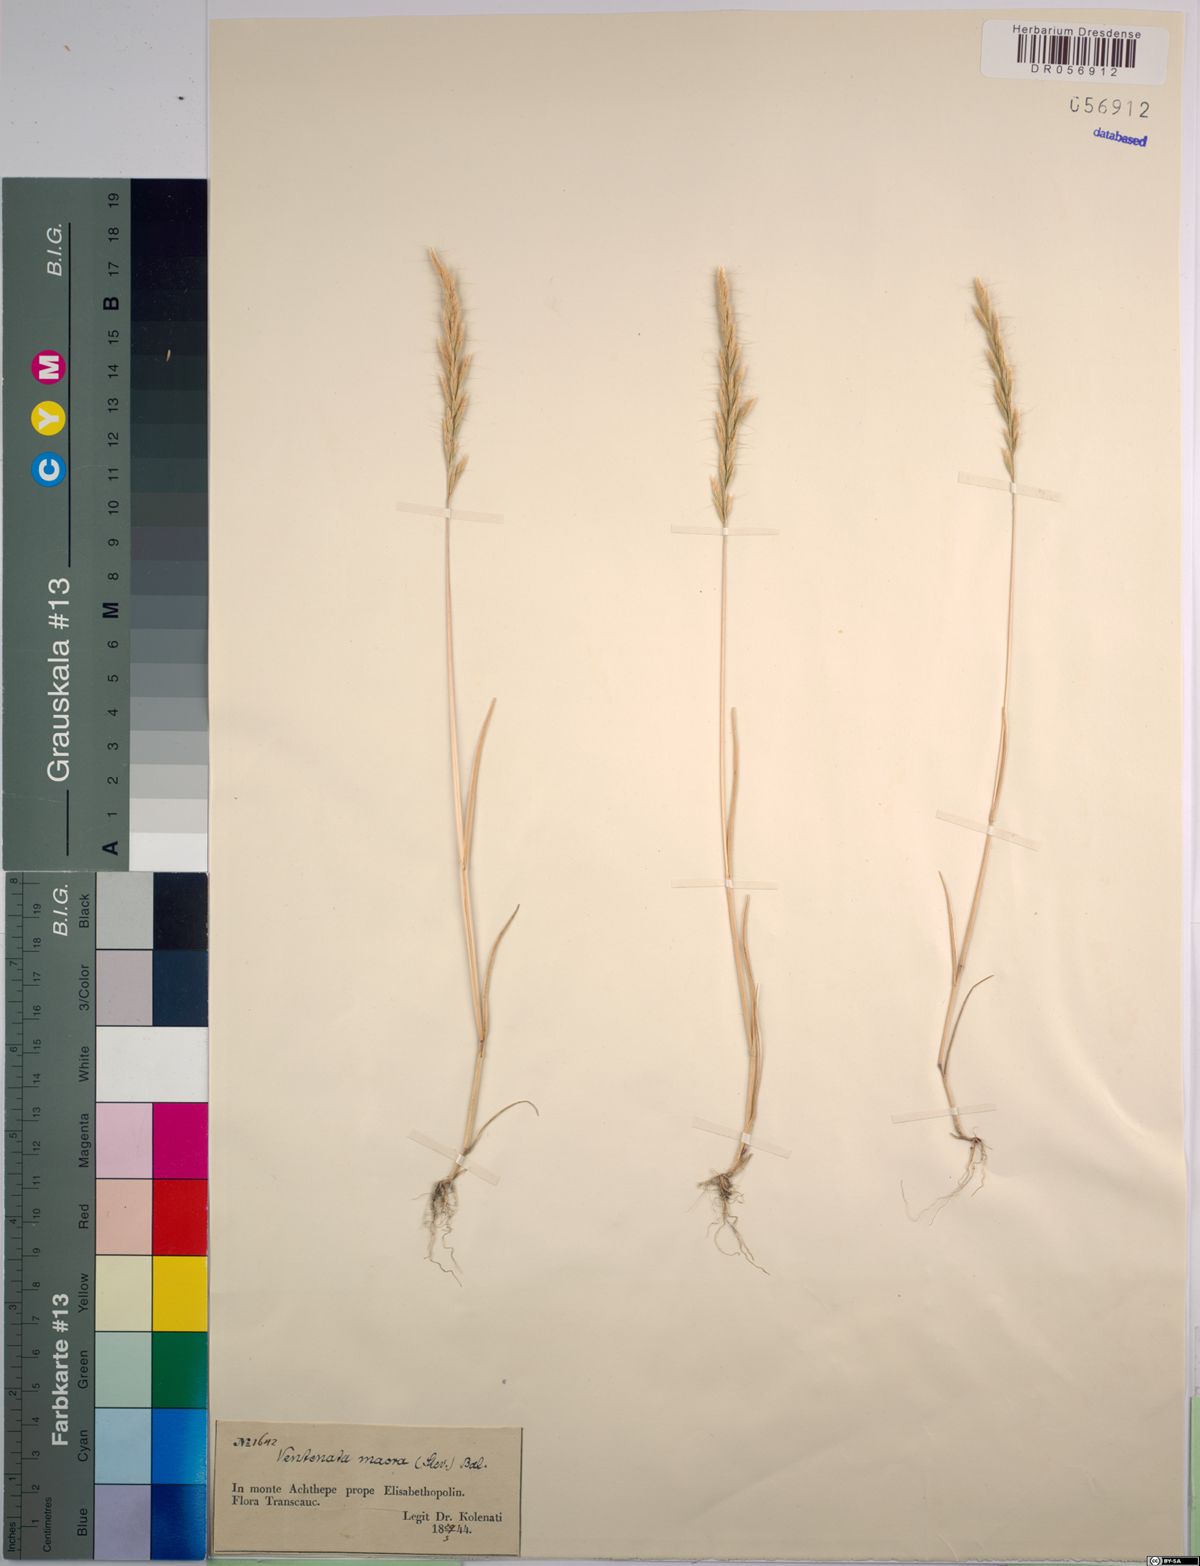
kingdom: Plantae
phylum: Tracheophyta
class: Liliopsida
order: Poales
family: Poaceae
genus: Ventenata
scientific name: Ventenata macra
